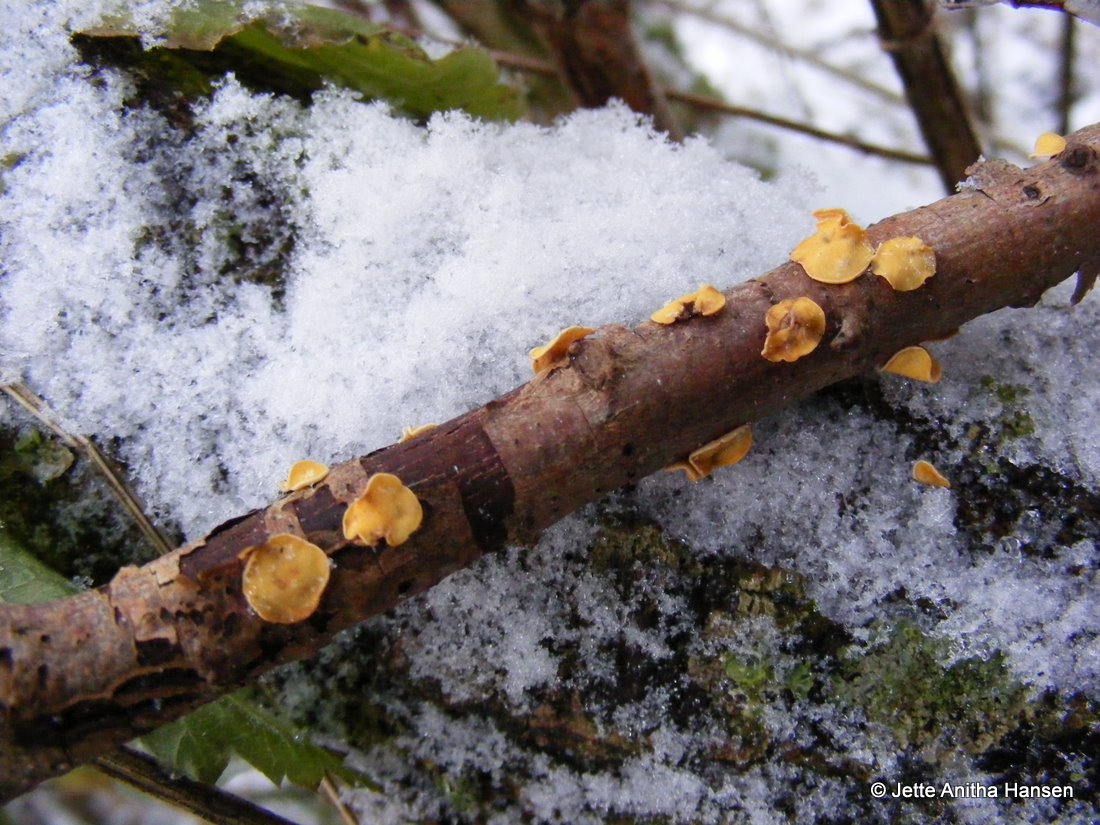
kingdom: Fungi
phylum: Ascomycota
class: Leotiomycetes
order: Helotiales
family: Helotiaceae
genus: Hymenoscyphus
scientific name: Hymenoscyphus calyculus
